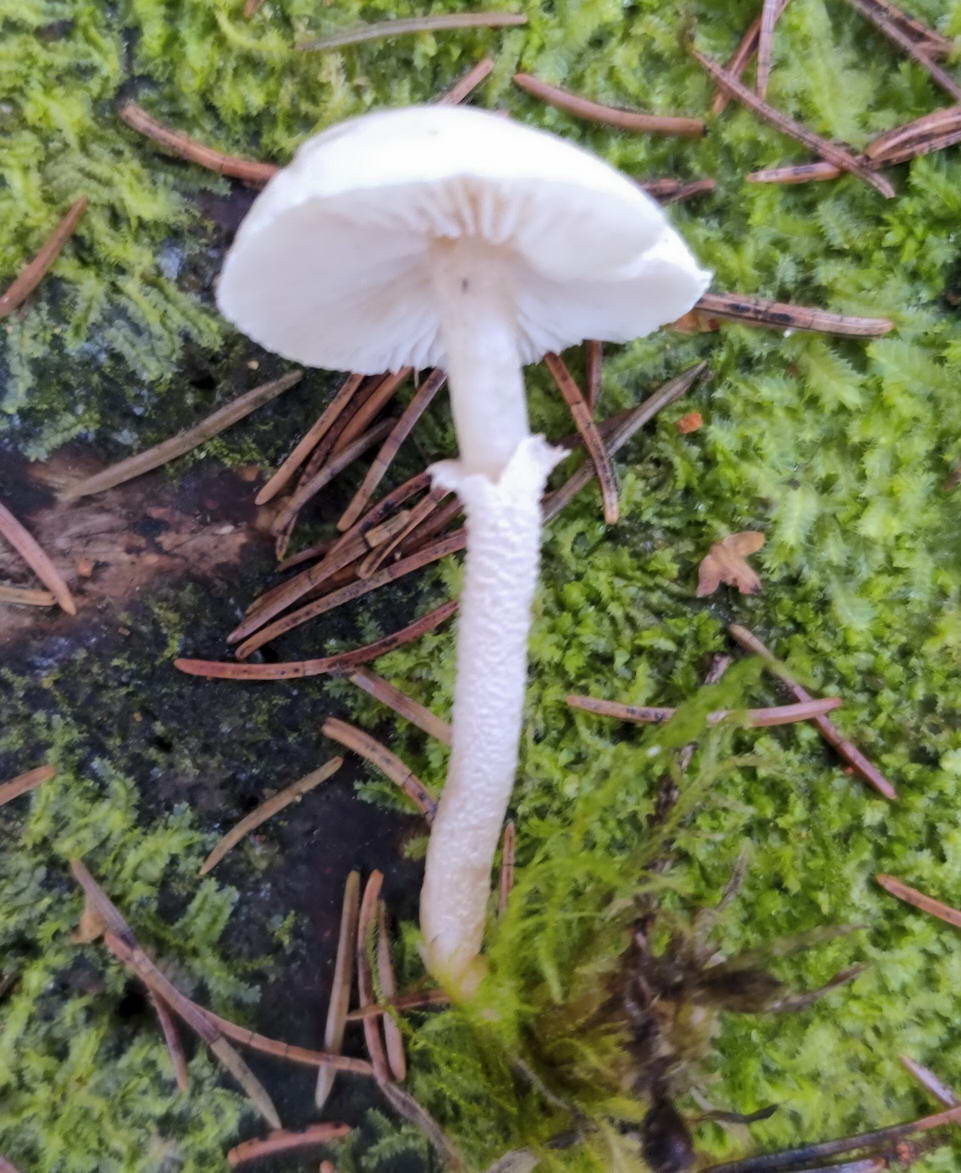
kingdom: Fungi
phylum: Basidiomycota
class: Agaricomycetes
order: Agaricales
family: Tricholomataceae
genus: Cystoderma
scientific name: Cystoderma carcharias
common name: rødgrå grynhat
